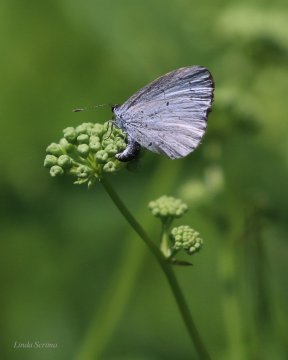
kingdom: Animalia
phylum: Arthropoda
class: Insecta
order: Lepidoptera
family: Lycaenidae
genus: Cyaniris
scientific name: Cyaniris neglecta
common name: Summer Azure
